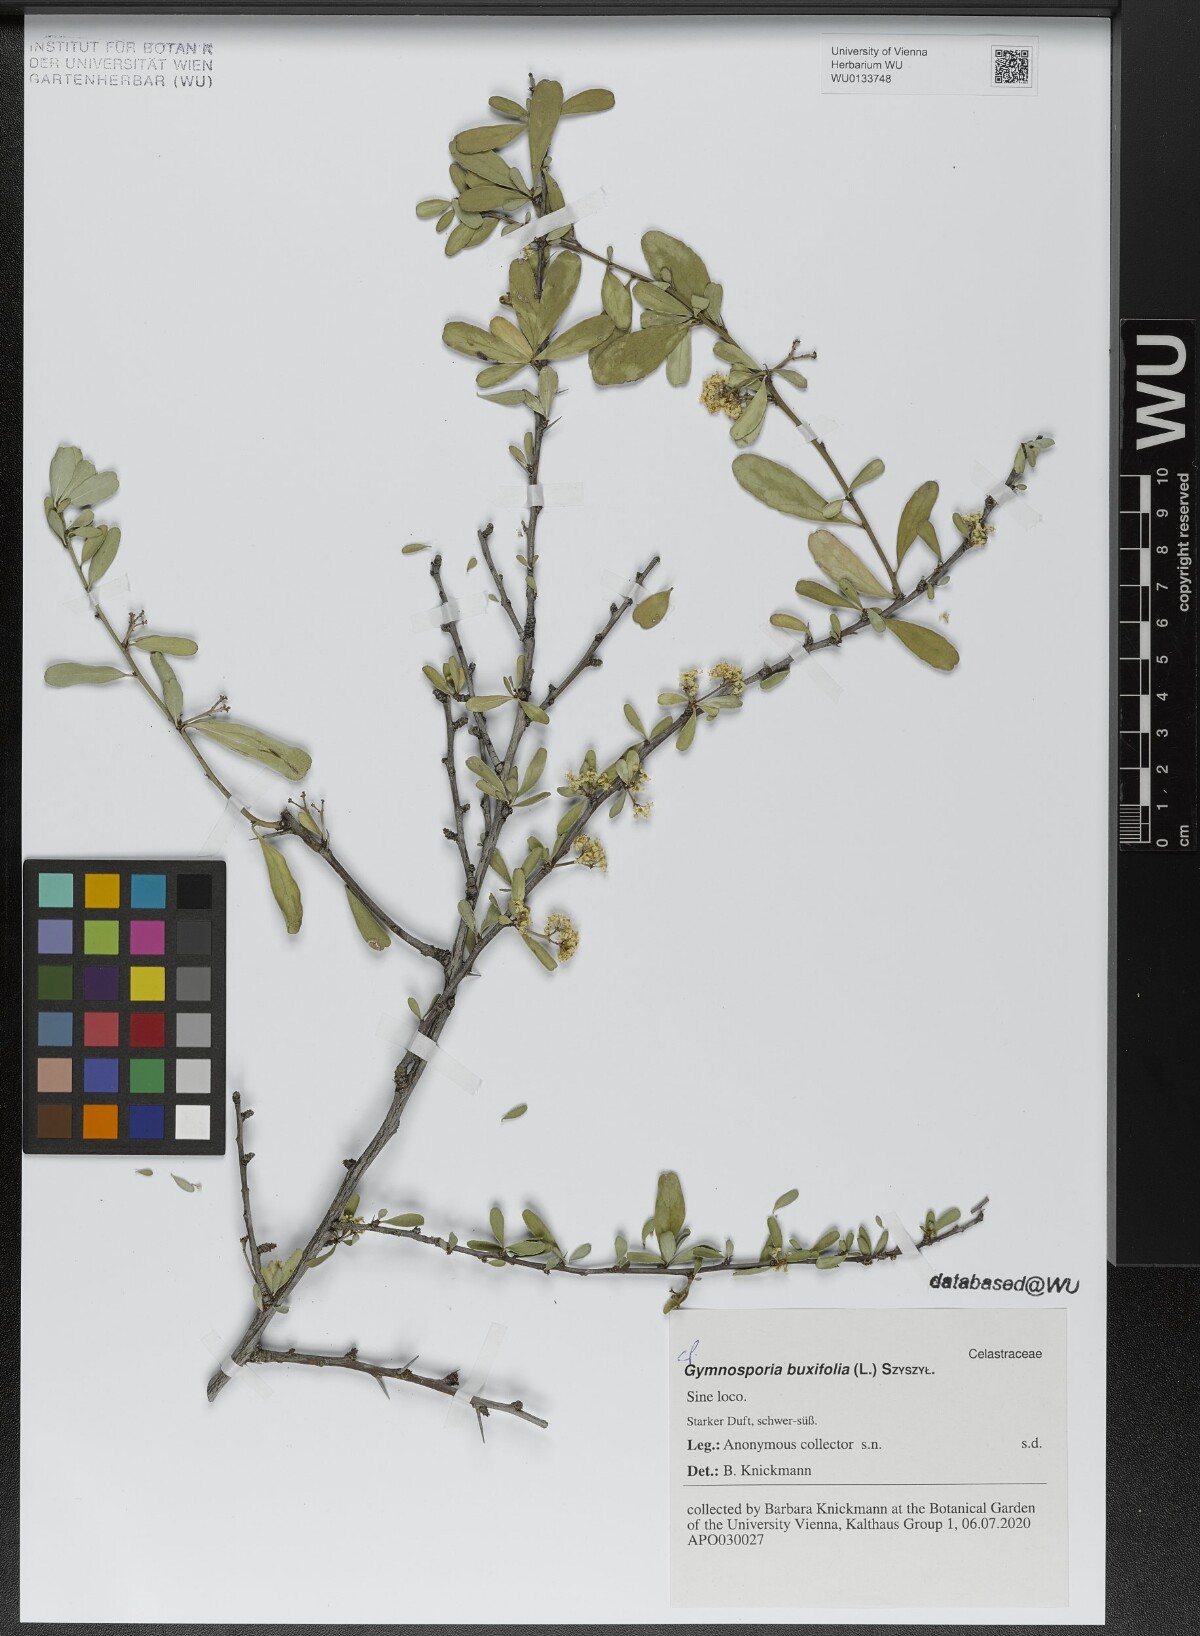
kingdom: Plantae
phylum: Tracheophyta
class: Magnoliopsida
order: Celastrales
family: Celastraceae
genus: Gymnosporia
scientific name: Gymnosporia buxifolia
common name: Common spike-thorn
